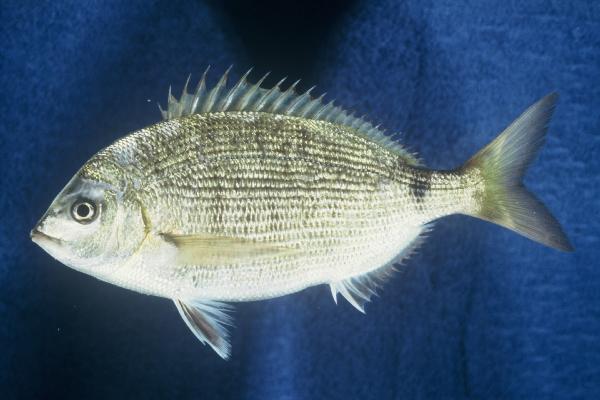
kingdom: Animalia
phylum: Chordata
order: Perciformes
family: Sparidae
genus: Diplodus
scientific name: Diplodus noct
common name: Arabian pinfish
